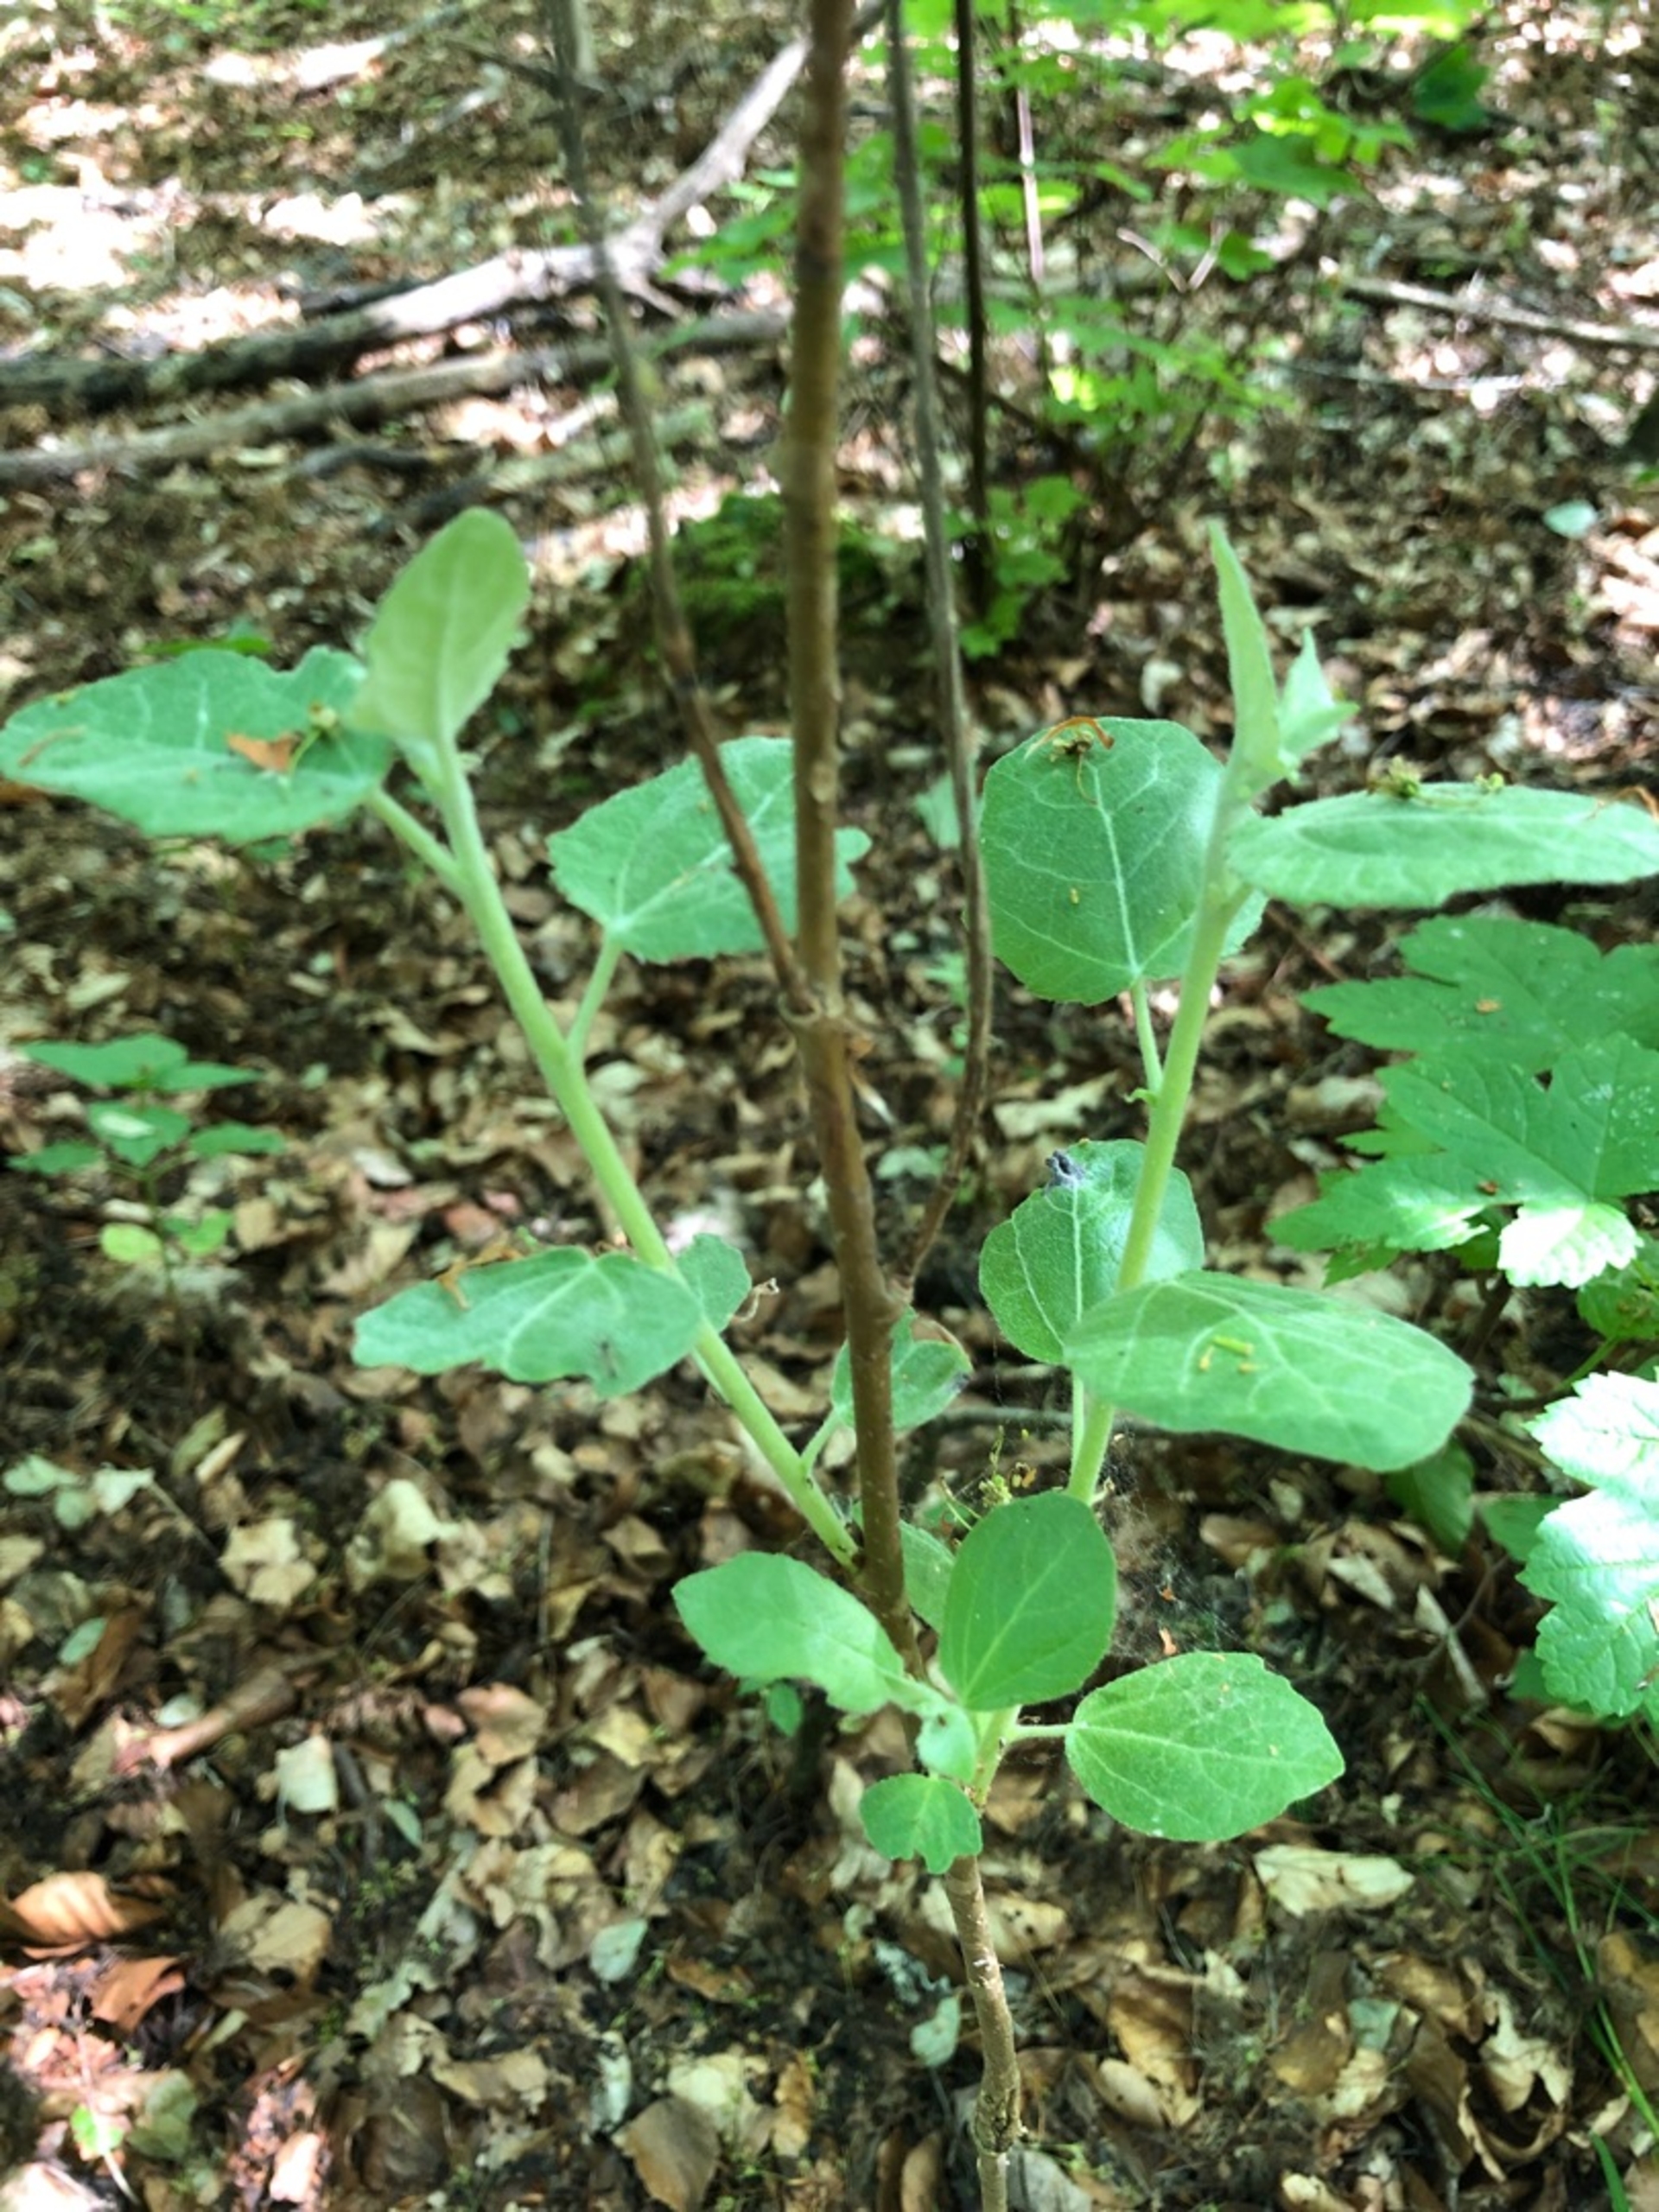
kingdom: Plantae
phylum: Tracheophyta
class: Magnoliopsida
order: Malpighiales
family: Salicaceae
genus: Populus
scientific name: Populus tremula
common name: Bævreasp
